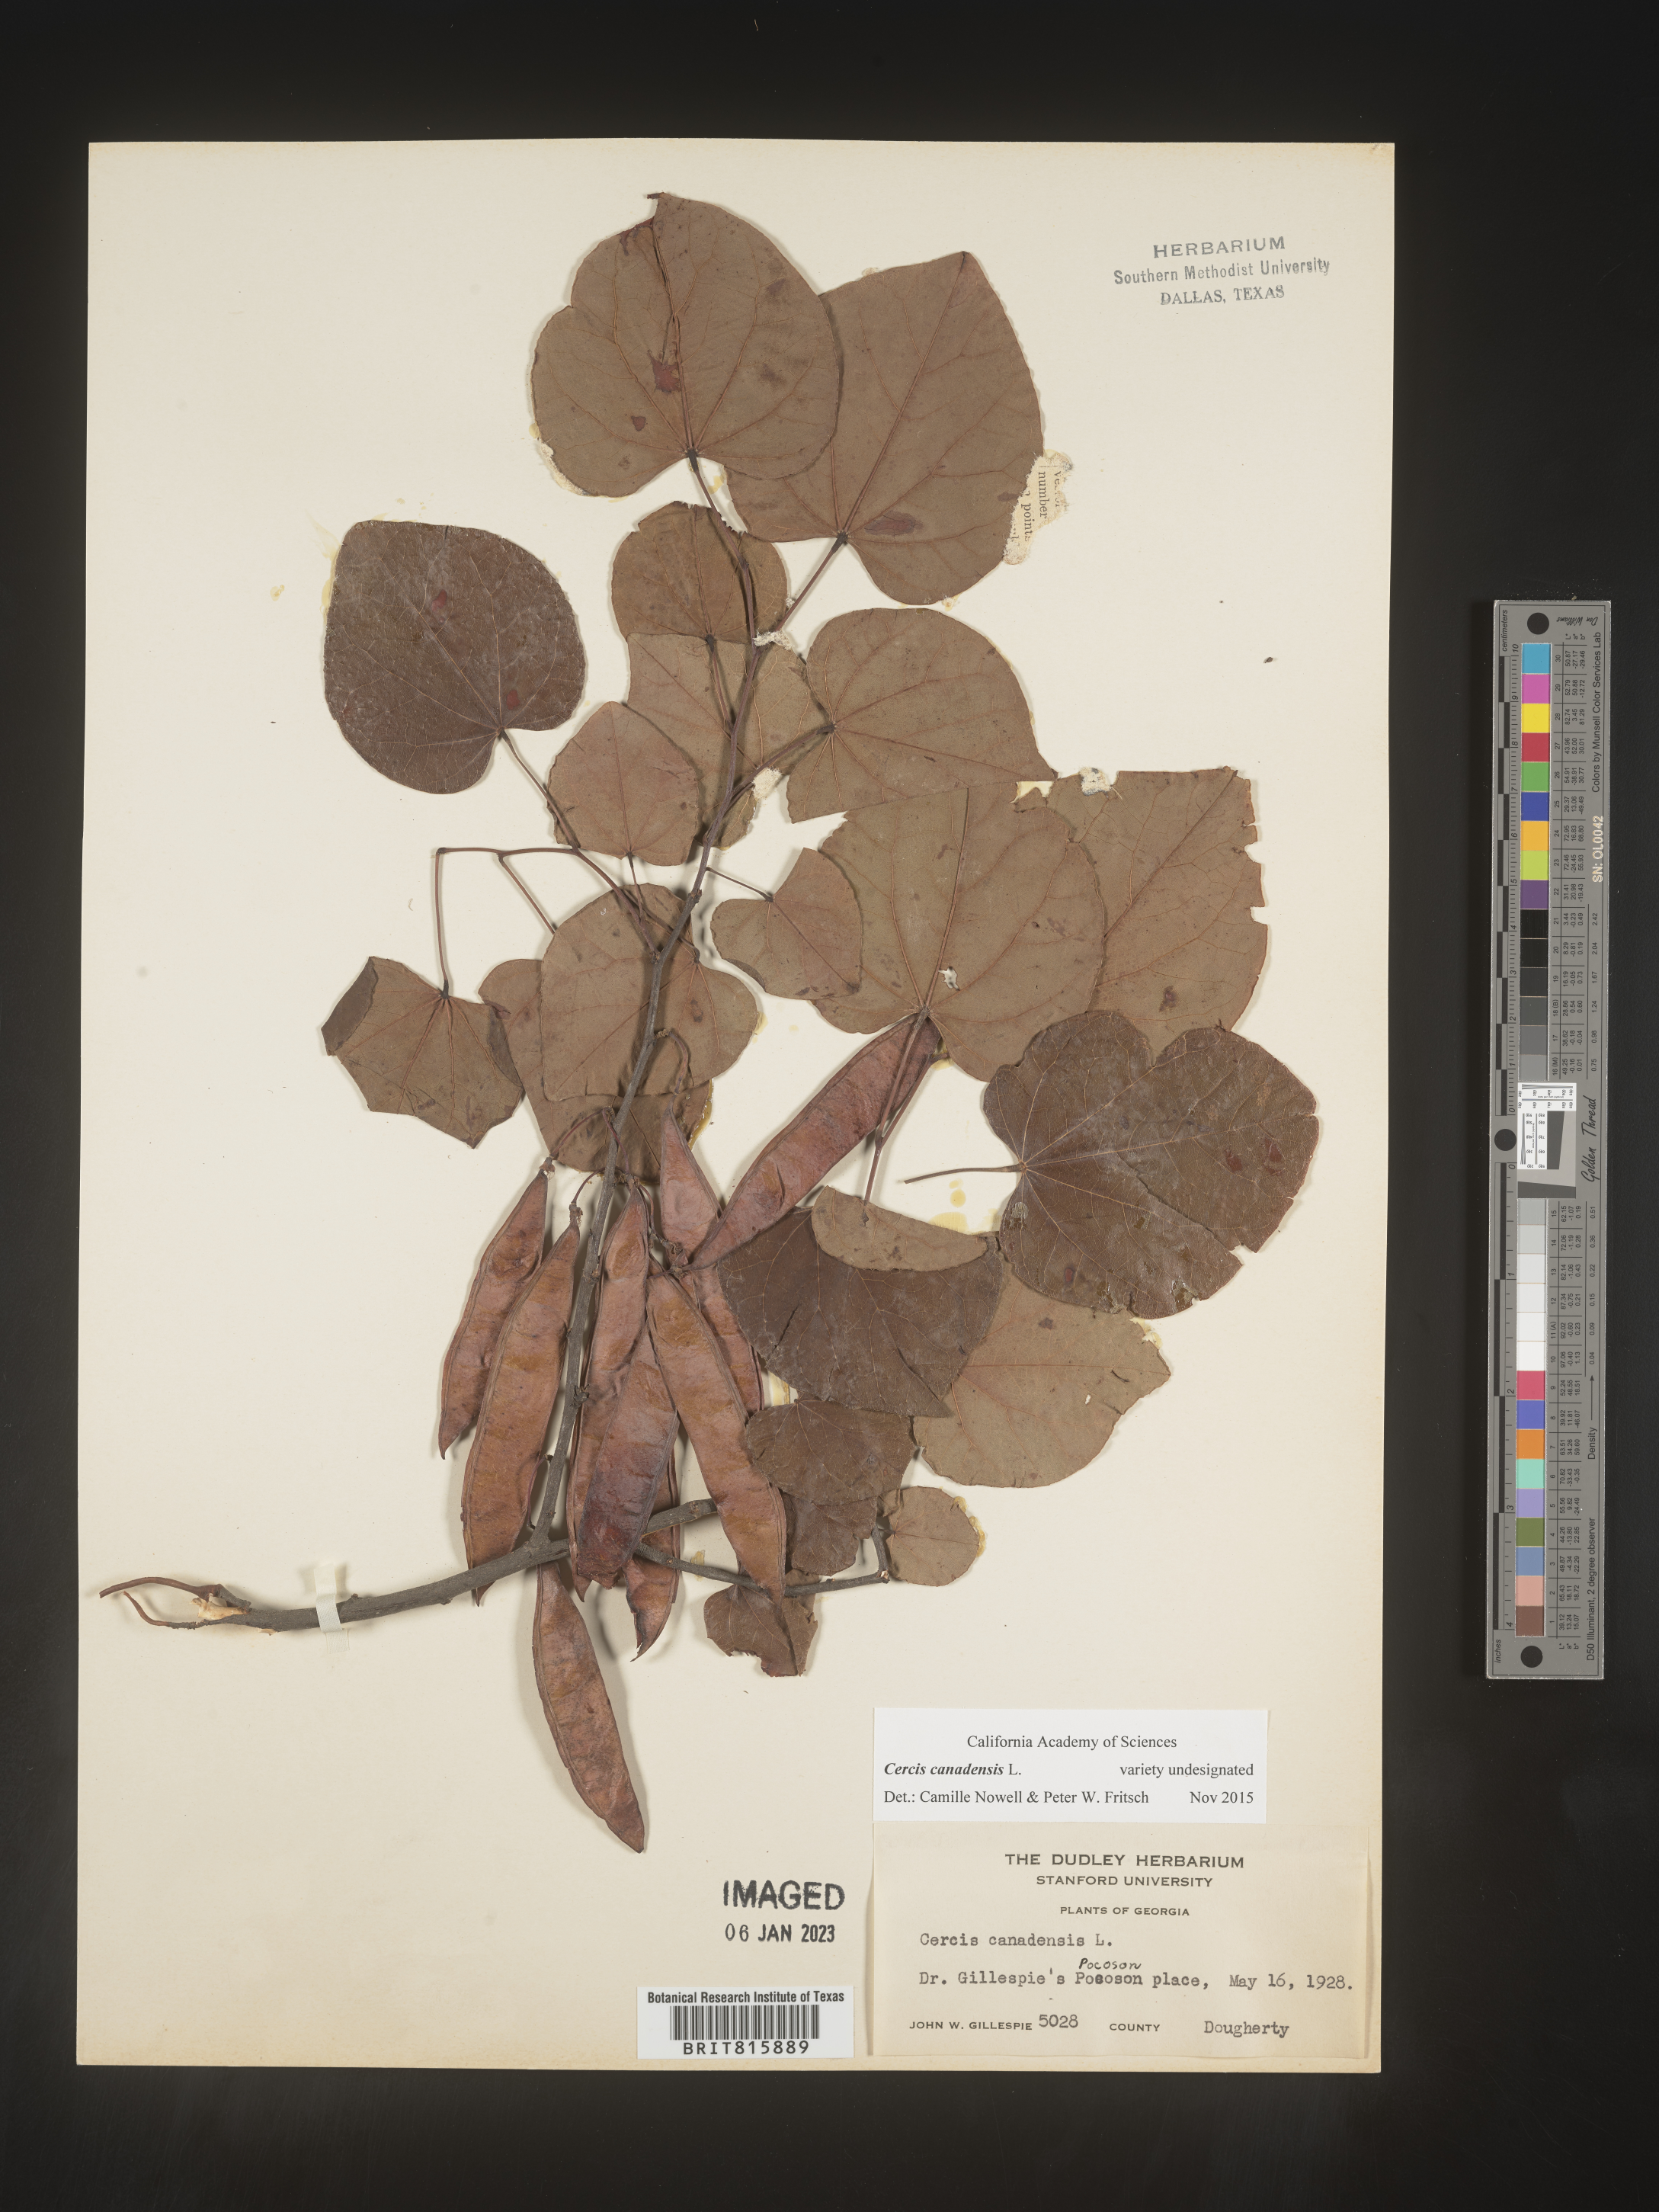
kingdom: Plantae
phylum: Tracheophyta
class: Magnoliopsida
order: Fabales
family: Fabaceae
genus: Cercis
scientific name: Cercis canadensis
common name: Eastern redbud
